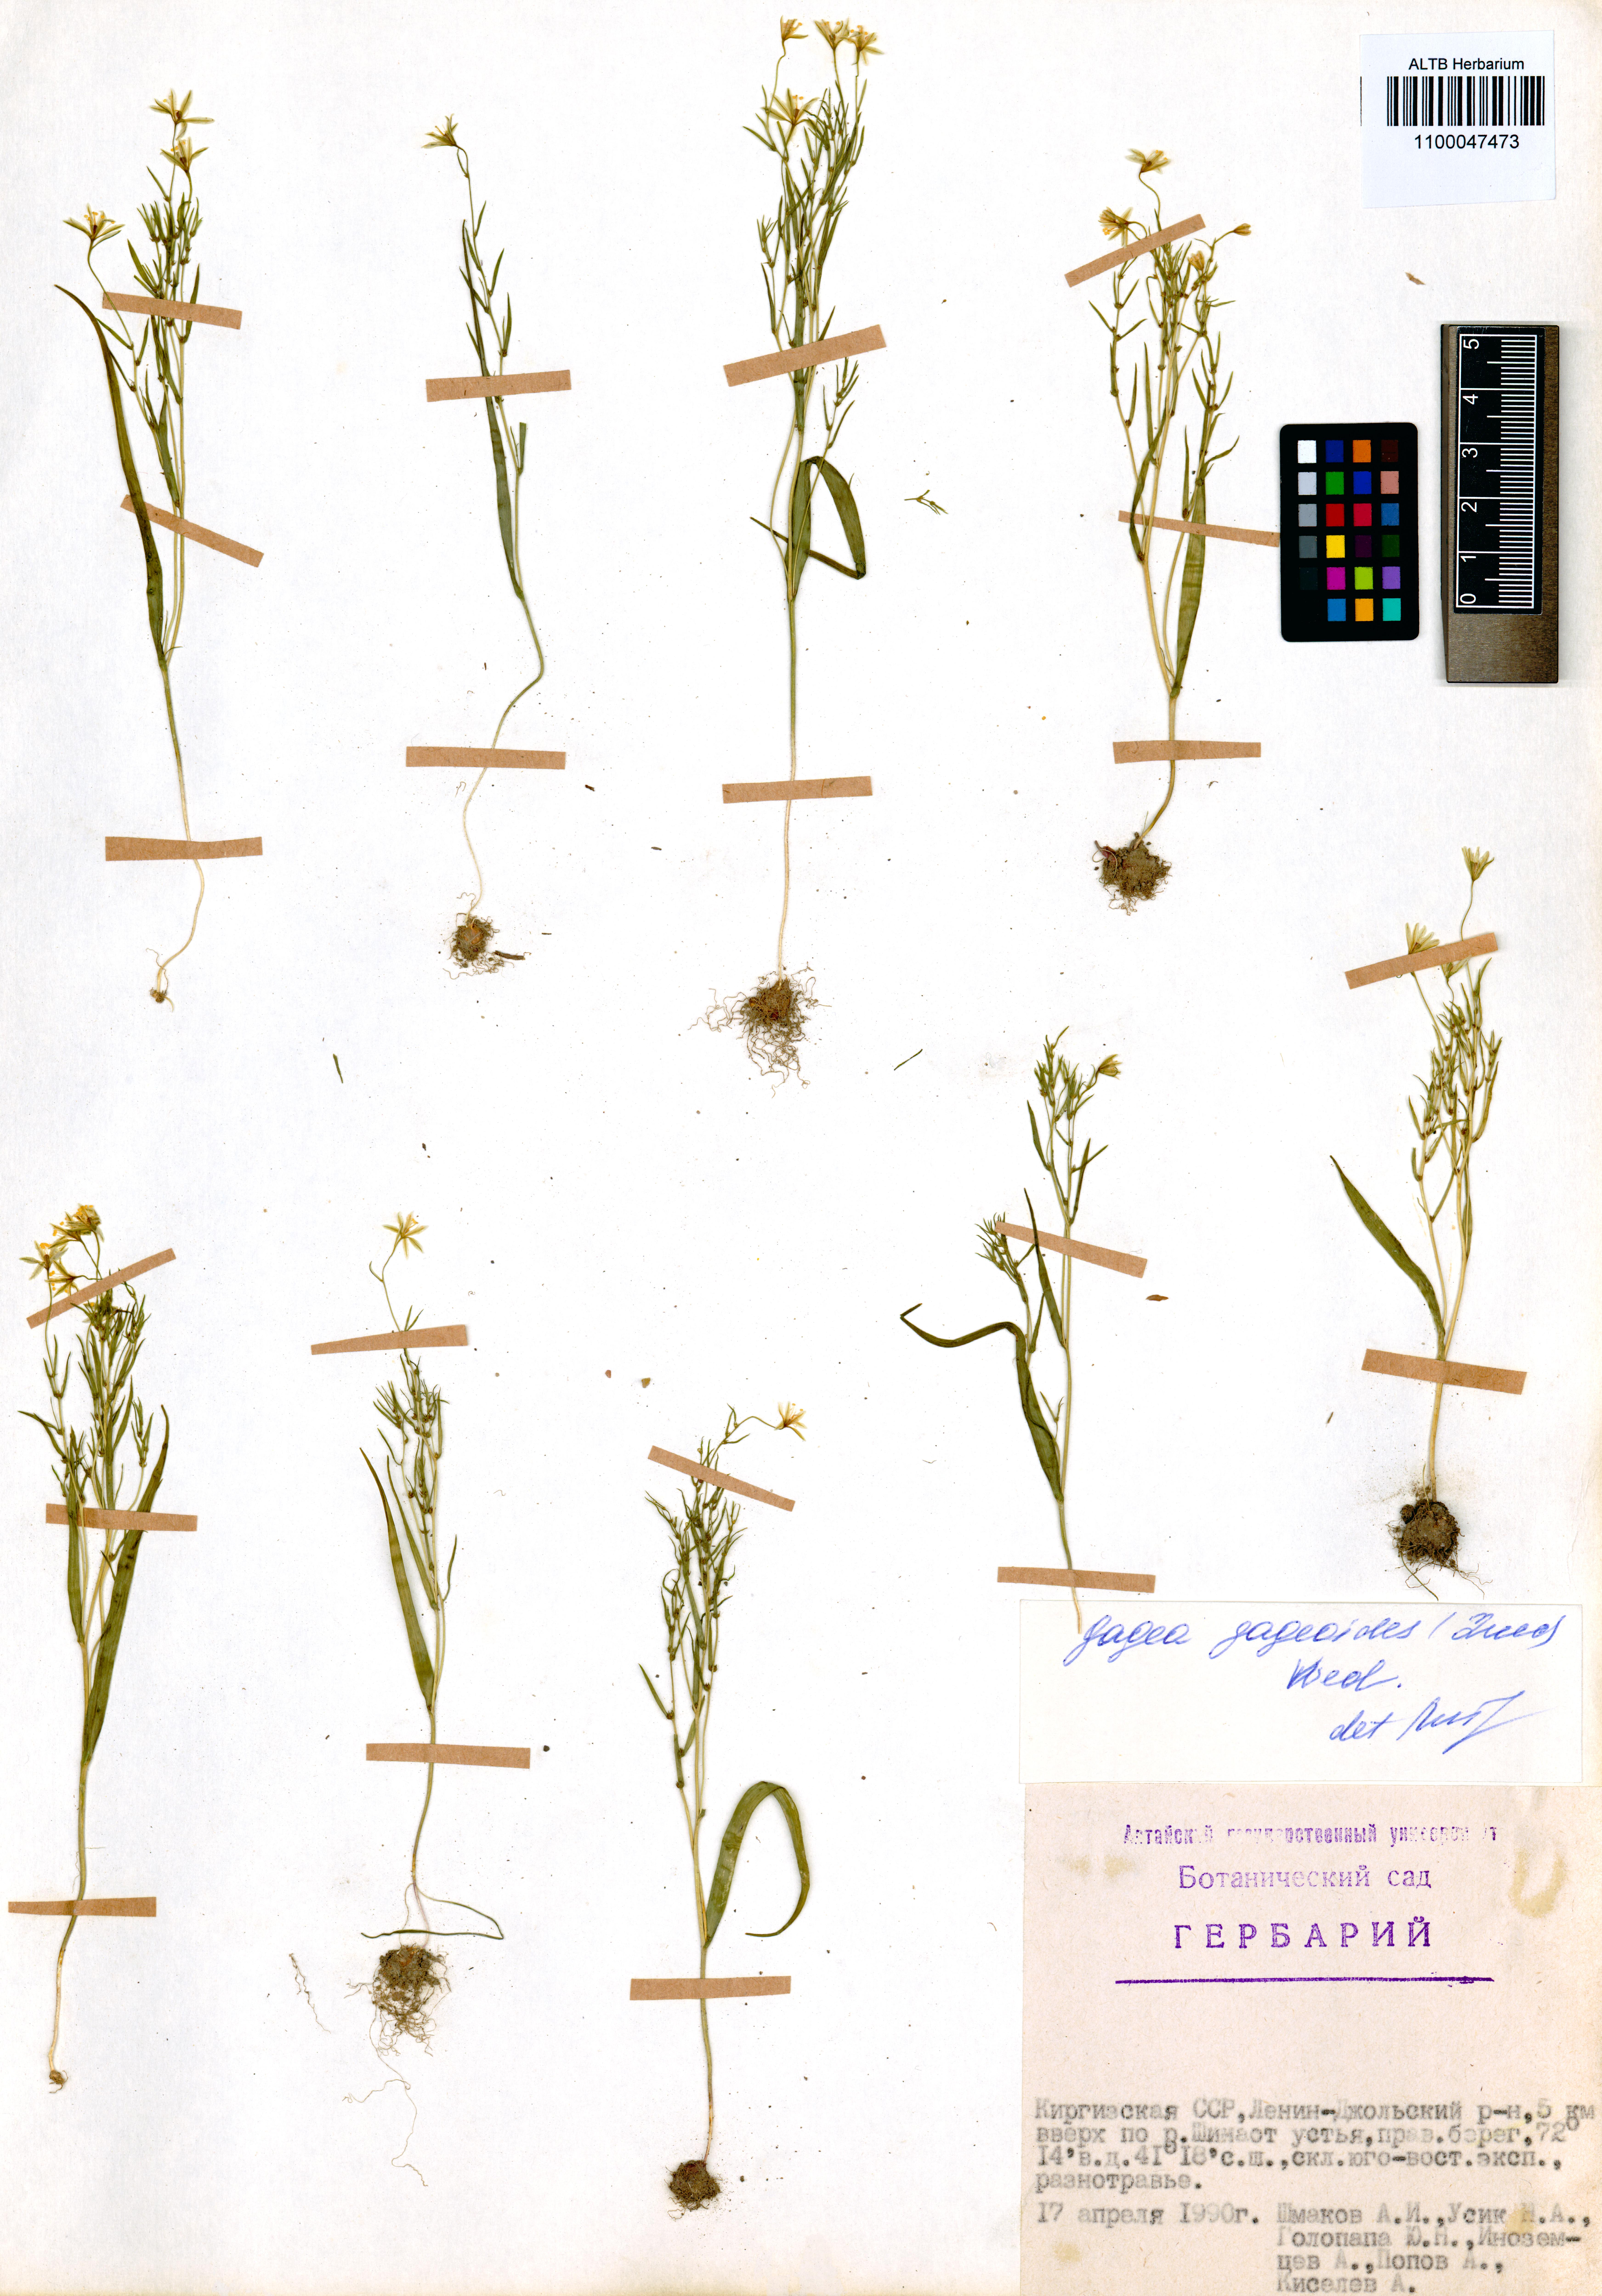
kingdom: Plantae
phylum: Tracheophyta
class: Liliopsida
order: Liliales
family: Liliaceae
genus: Gagea
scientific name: Gagea gageoides
